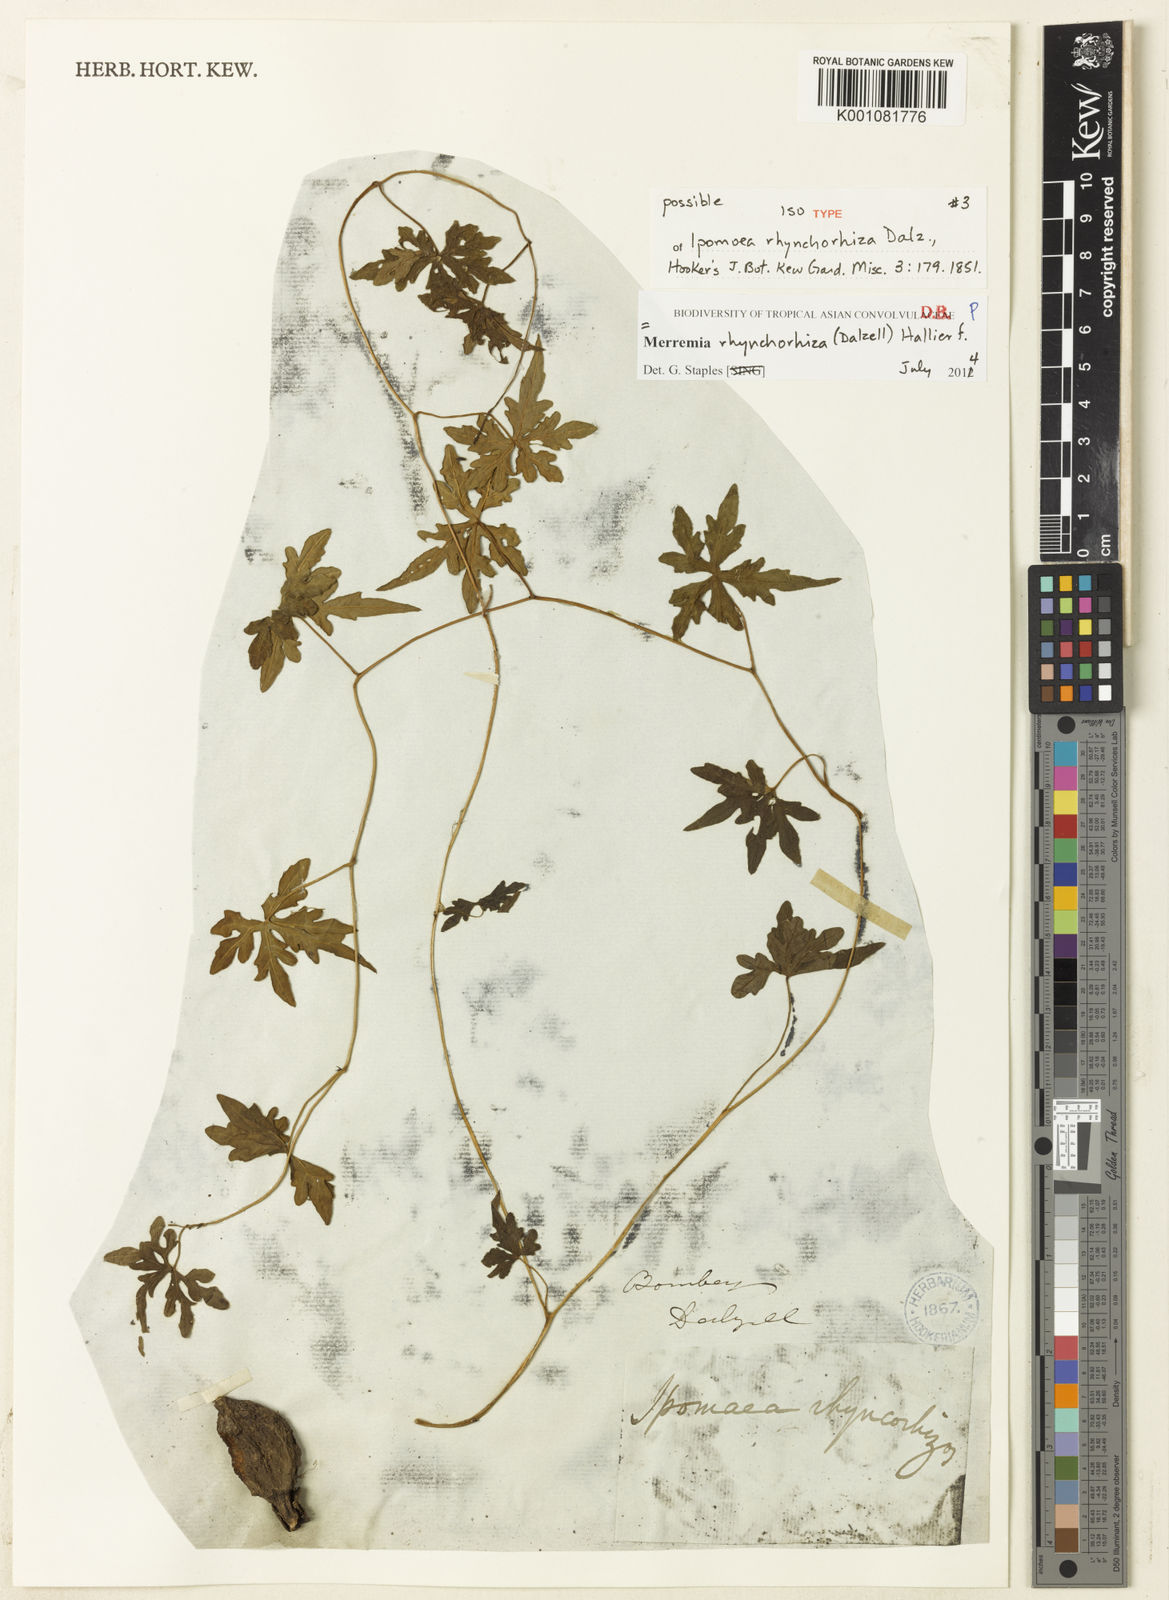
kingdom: Plantae
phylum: Tracheophyta
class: Magnoliopsida
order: Solanales
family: Convolvulaceae
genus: Distimake
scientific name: Distimake
